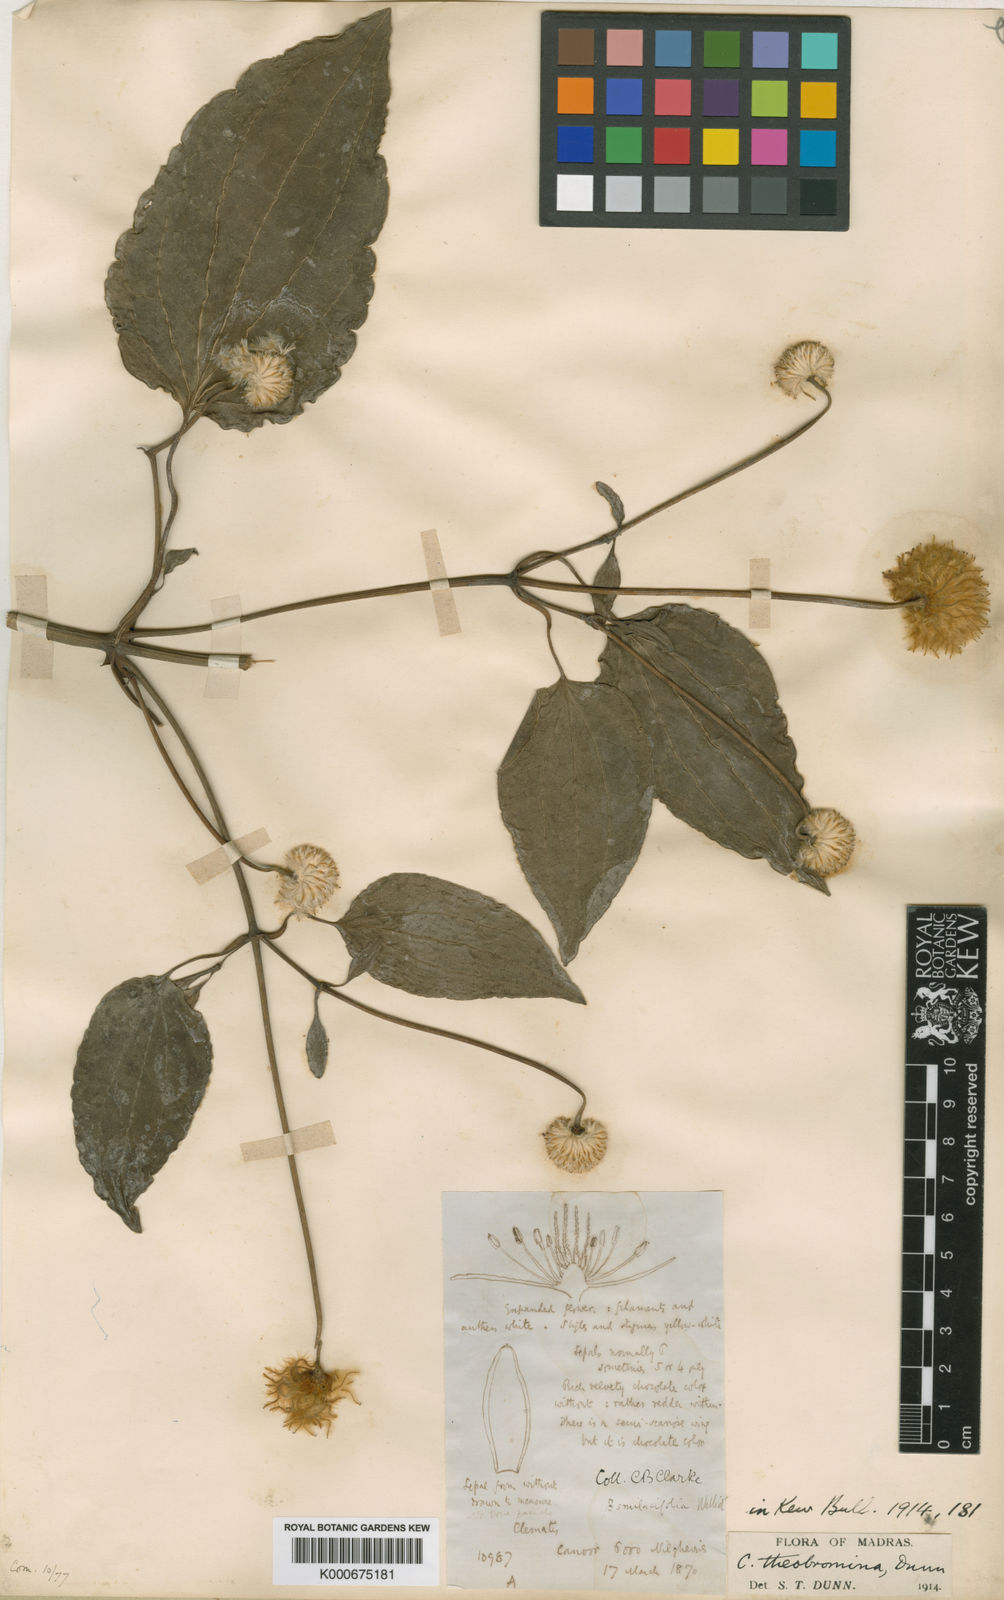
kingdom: Plantae
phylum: Tracheophyta
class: Magnoliopsida
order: Ranunculales
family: Ranunculaceae
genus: Clematis
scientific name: Clematis theobromina
